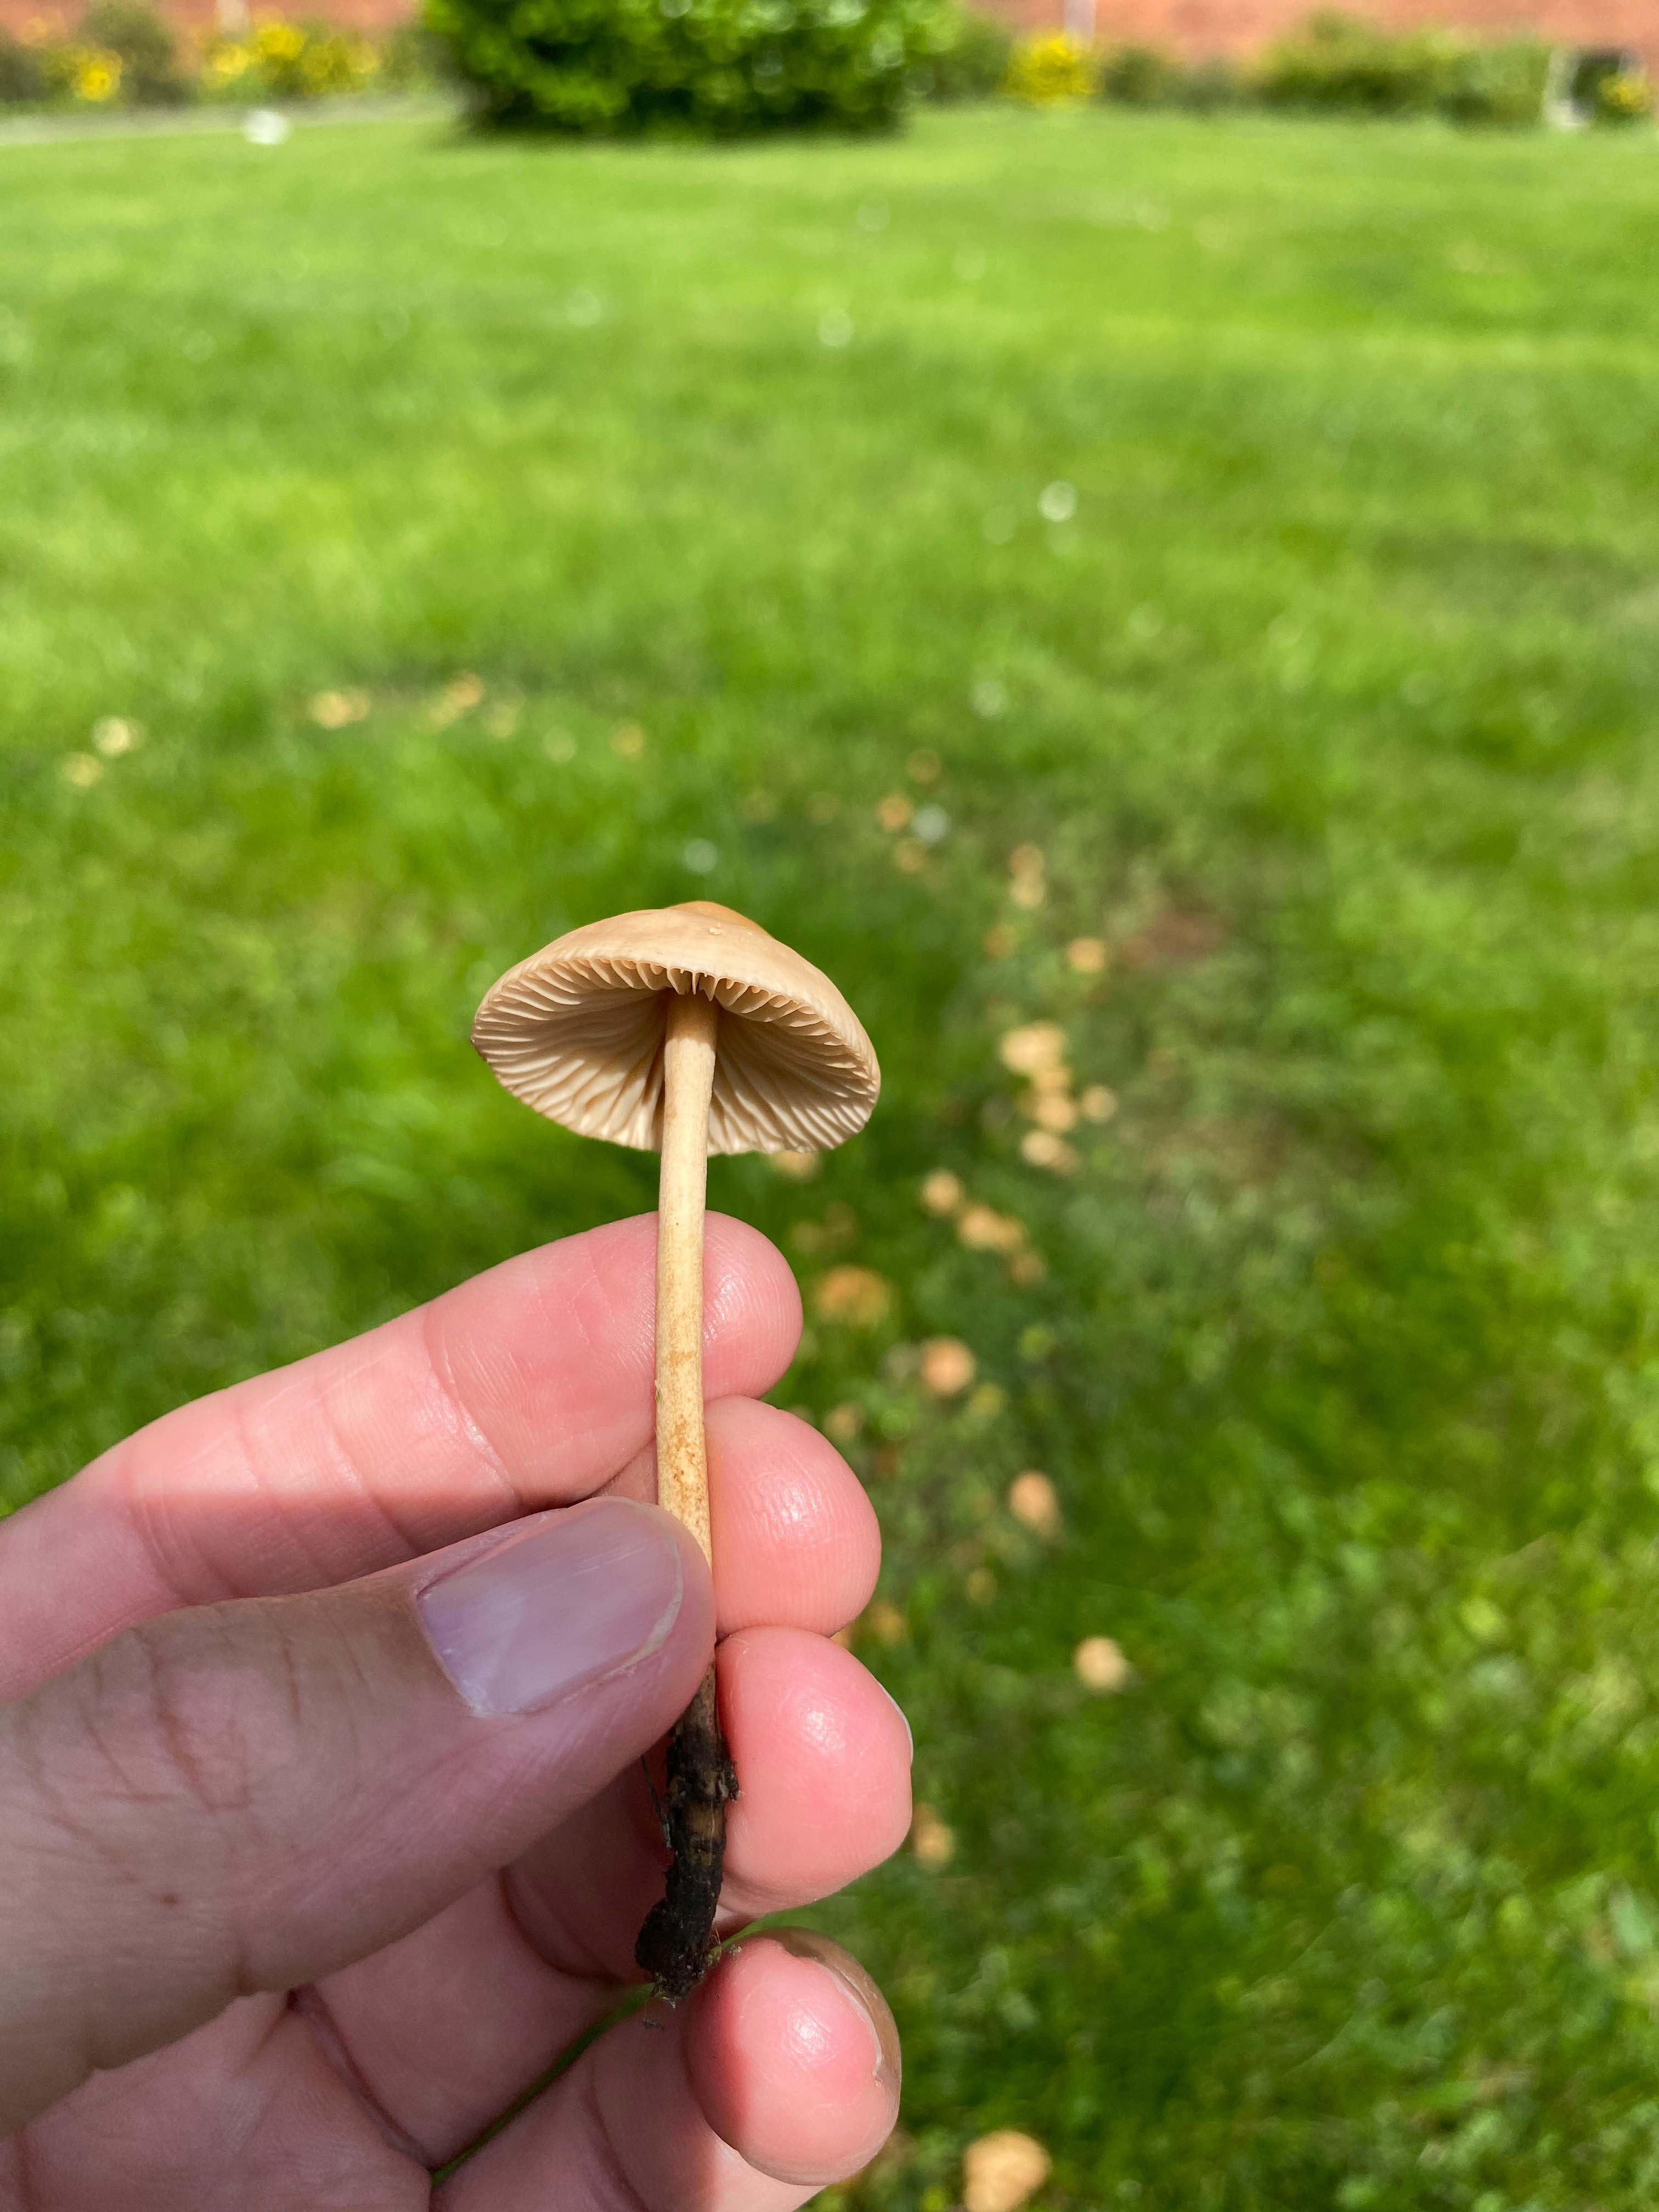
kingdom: Fungi
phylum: Basidiomycota
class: Agaricomycetes
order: Agaricales
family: Marasmiaceae
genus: Marasmius
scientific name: Marasmius oreades
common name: elledans-bruskhat
